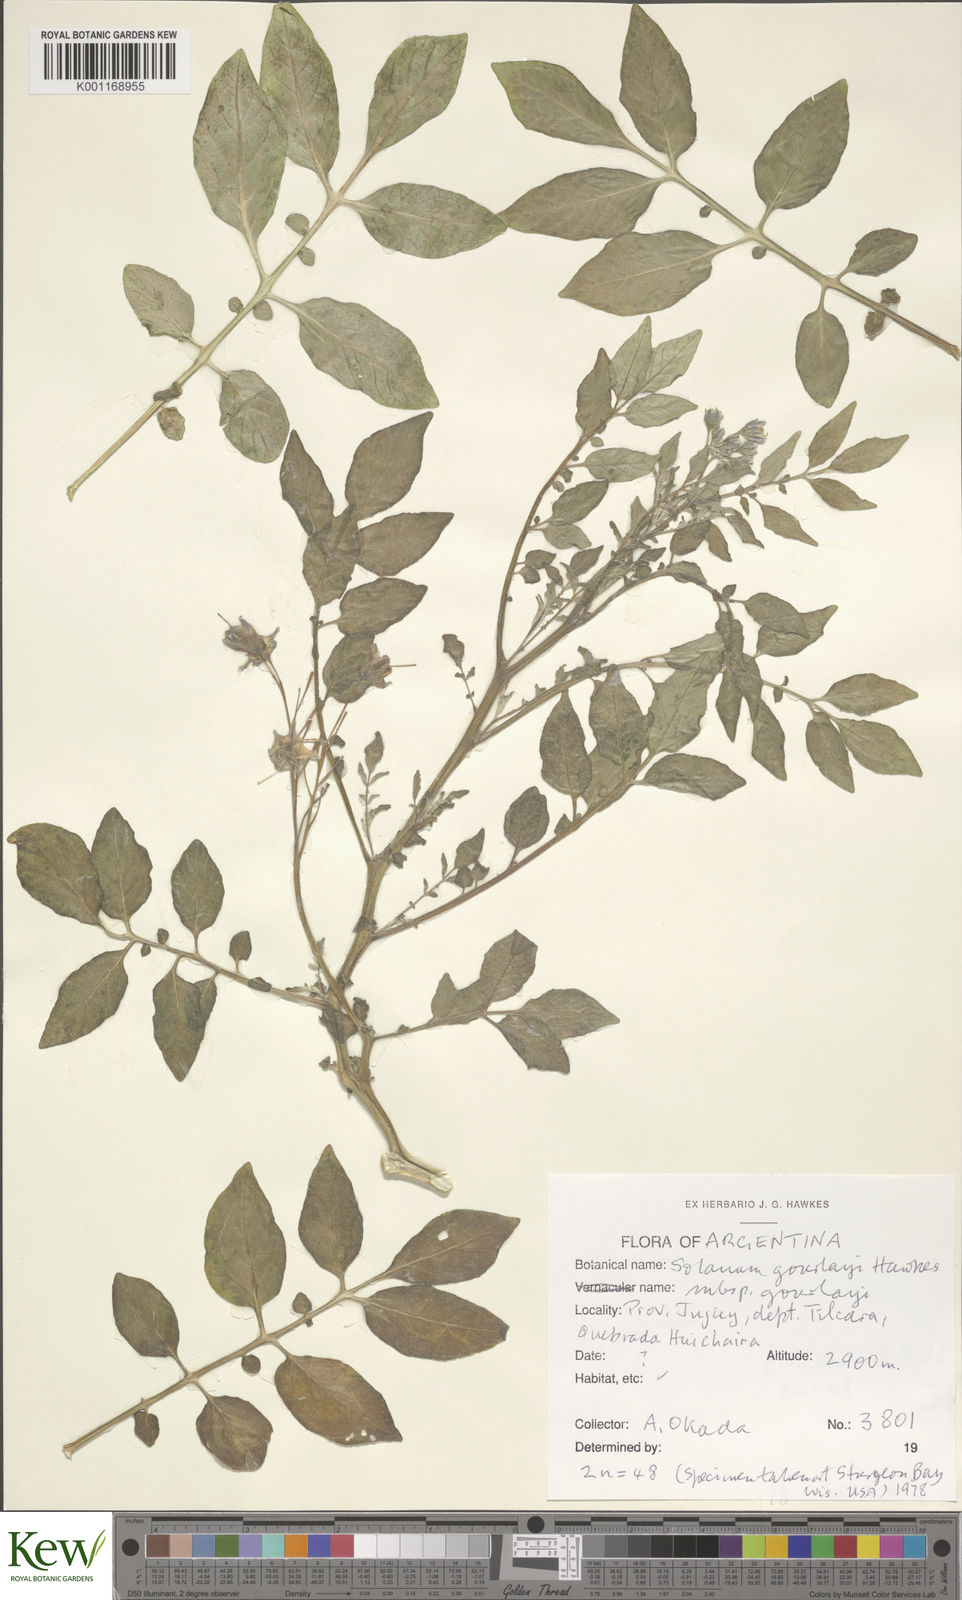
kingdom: Plantae
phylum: Tracheophyta
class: Magnoliopsida
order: Solanales
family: Solanaceae
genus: Solanum
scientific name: Solanum brevicaule
